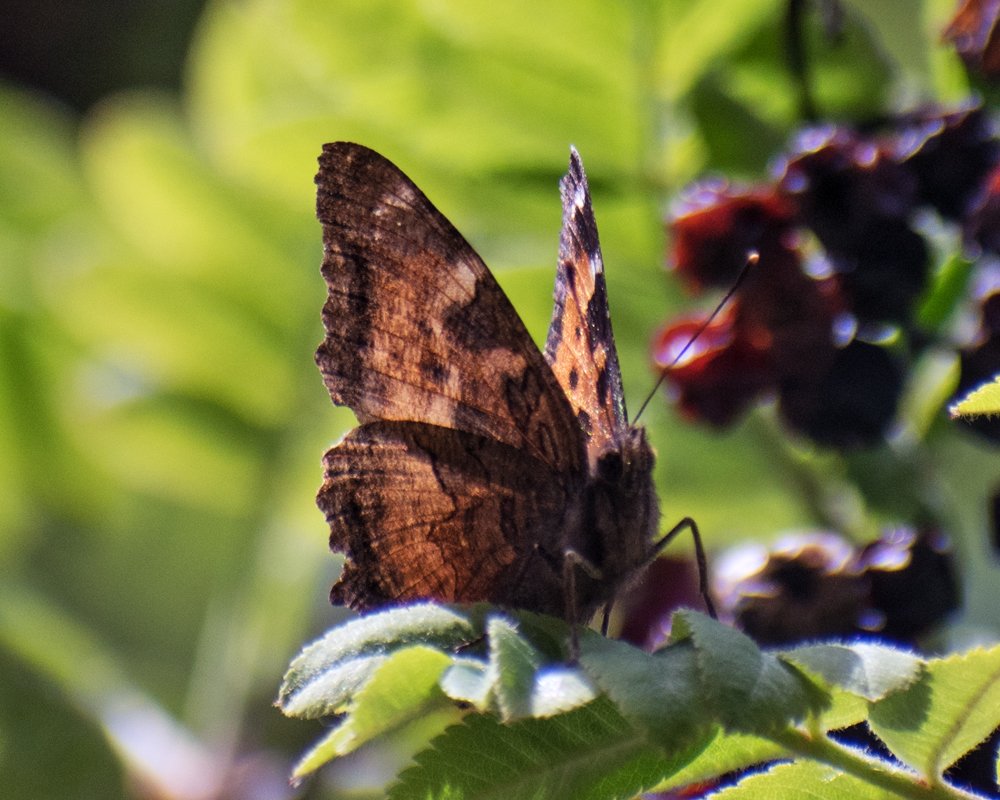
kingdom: Animalia
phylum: Arthropoda
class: Insecta
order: Lepidoptera
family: Nymphalidae
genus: Nymphalis
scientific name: Nymphalis californica
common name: California Tortoiseshell
